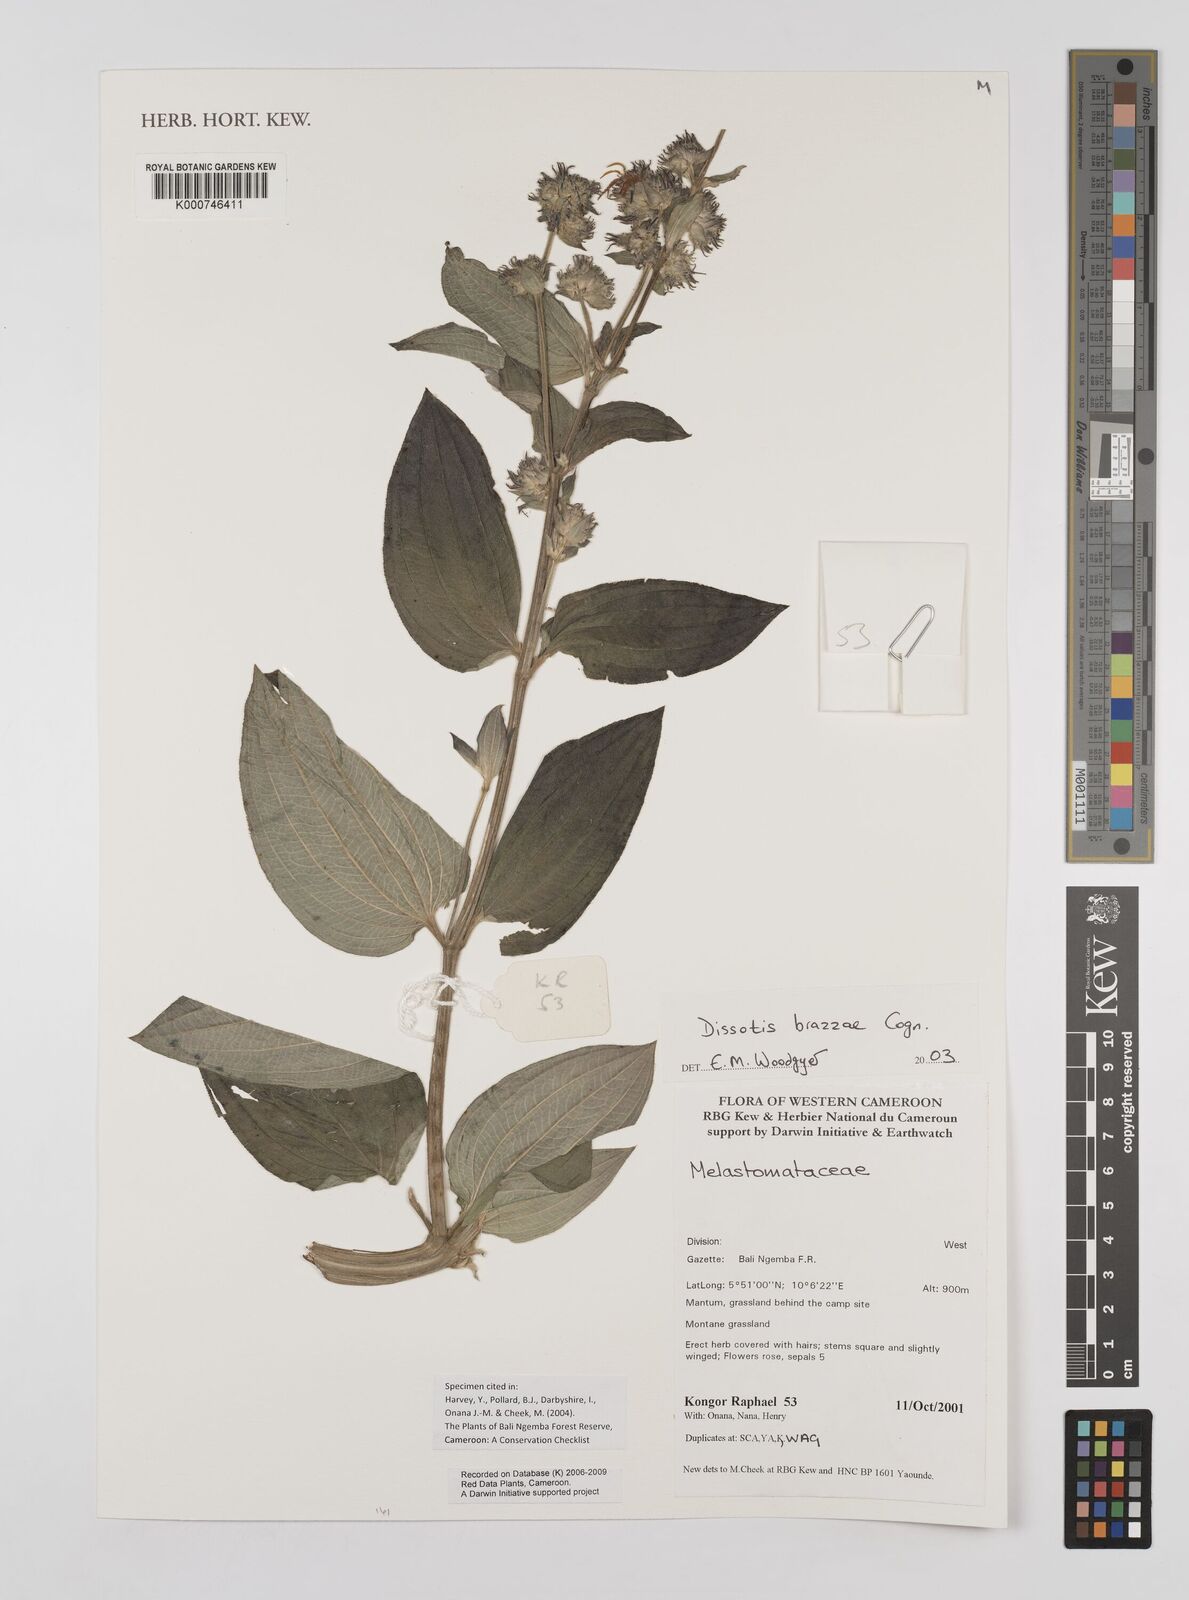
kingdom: Plantae
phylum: Tracheophyta
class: Magnoliopsida
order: Myrtales
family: Melastomataceae
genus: Dupineta
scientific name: Dupineta brazzae
